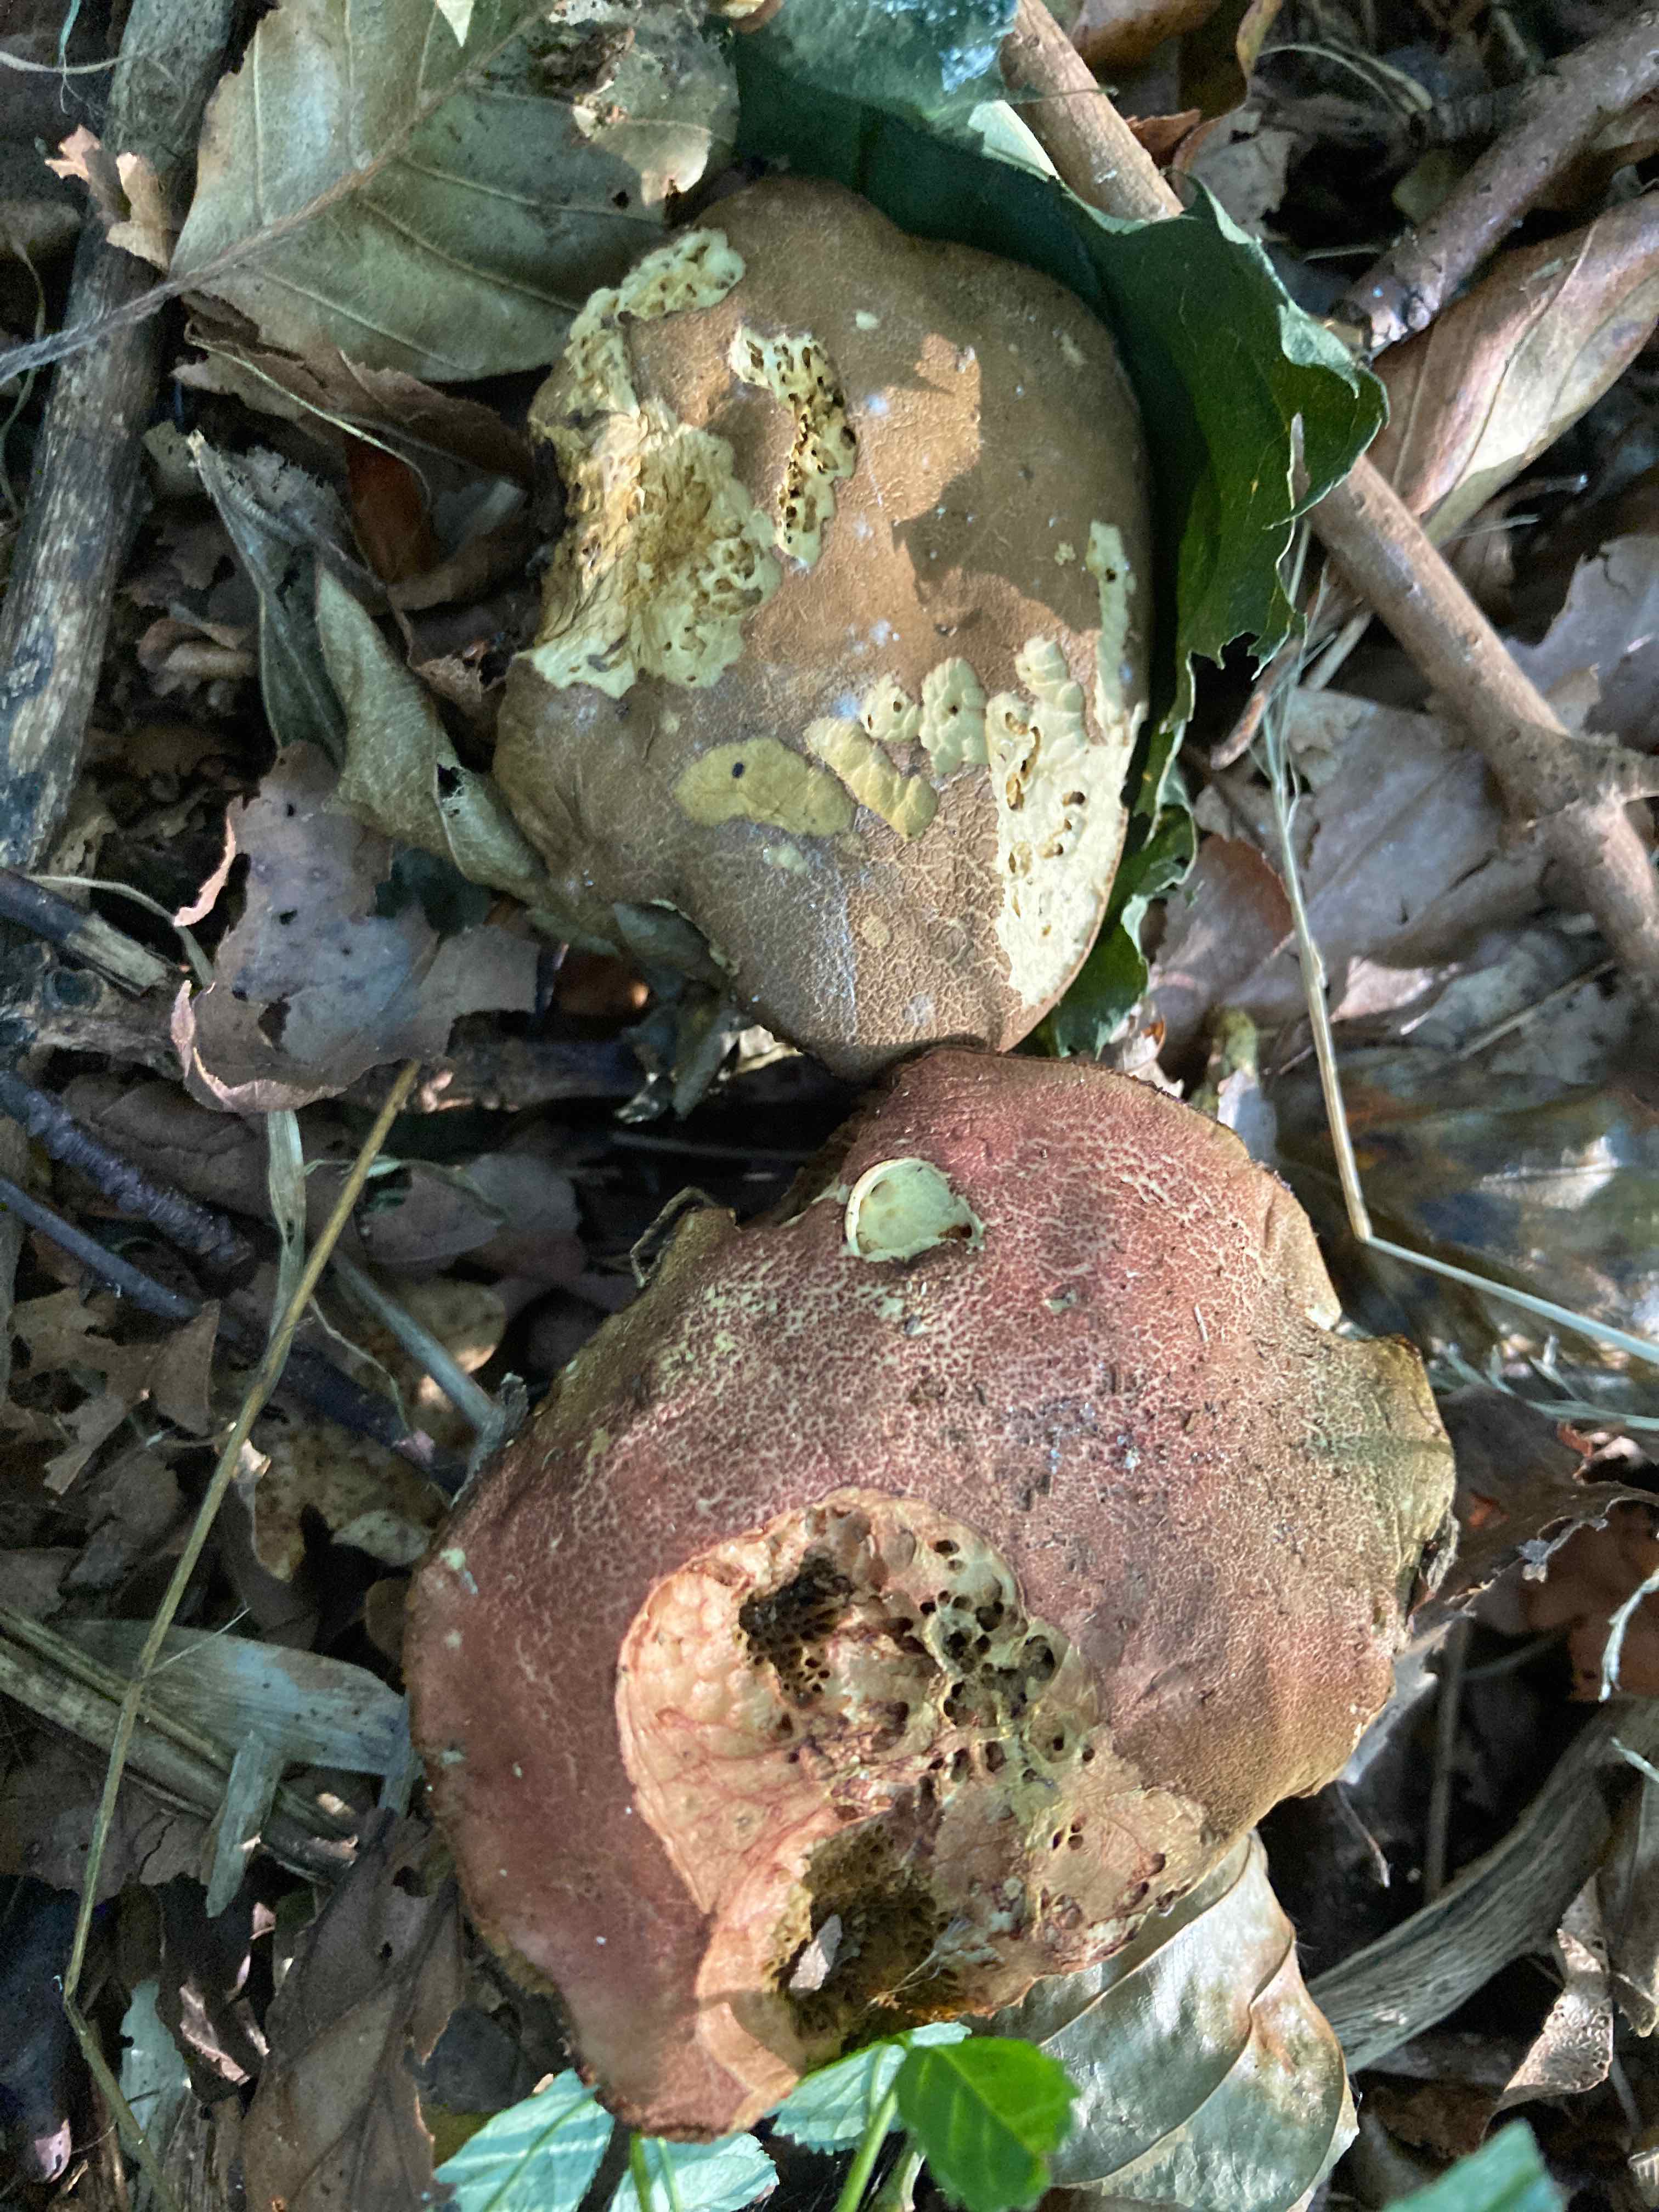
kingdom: Fungi
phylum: Basidiomycota
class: Agaricomycetes
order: Boletales
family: Boletaceae
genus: Hortiboletus
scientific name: Hortiboletus rubellus
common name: blodrød rørhat
